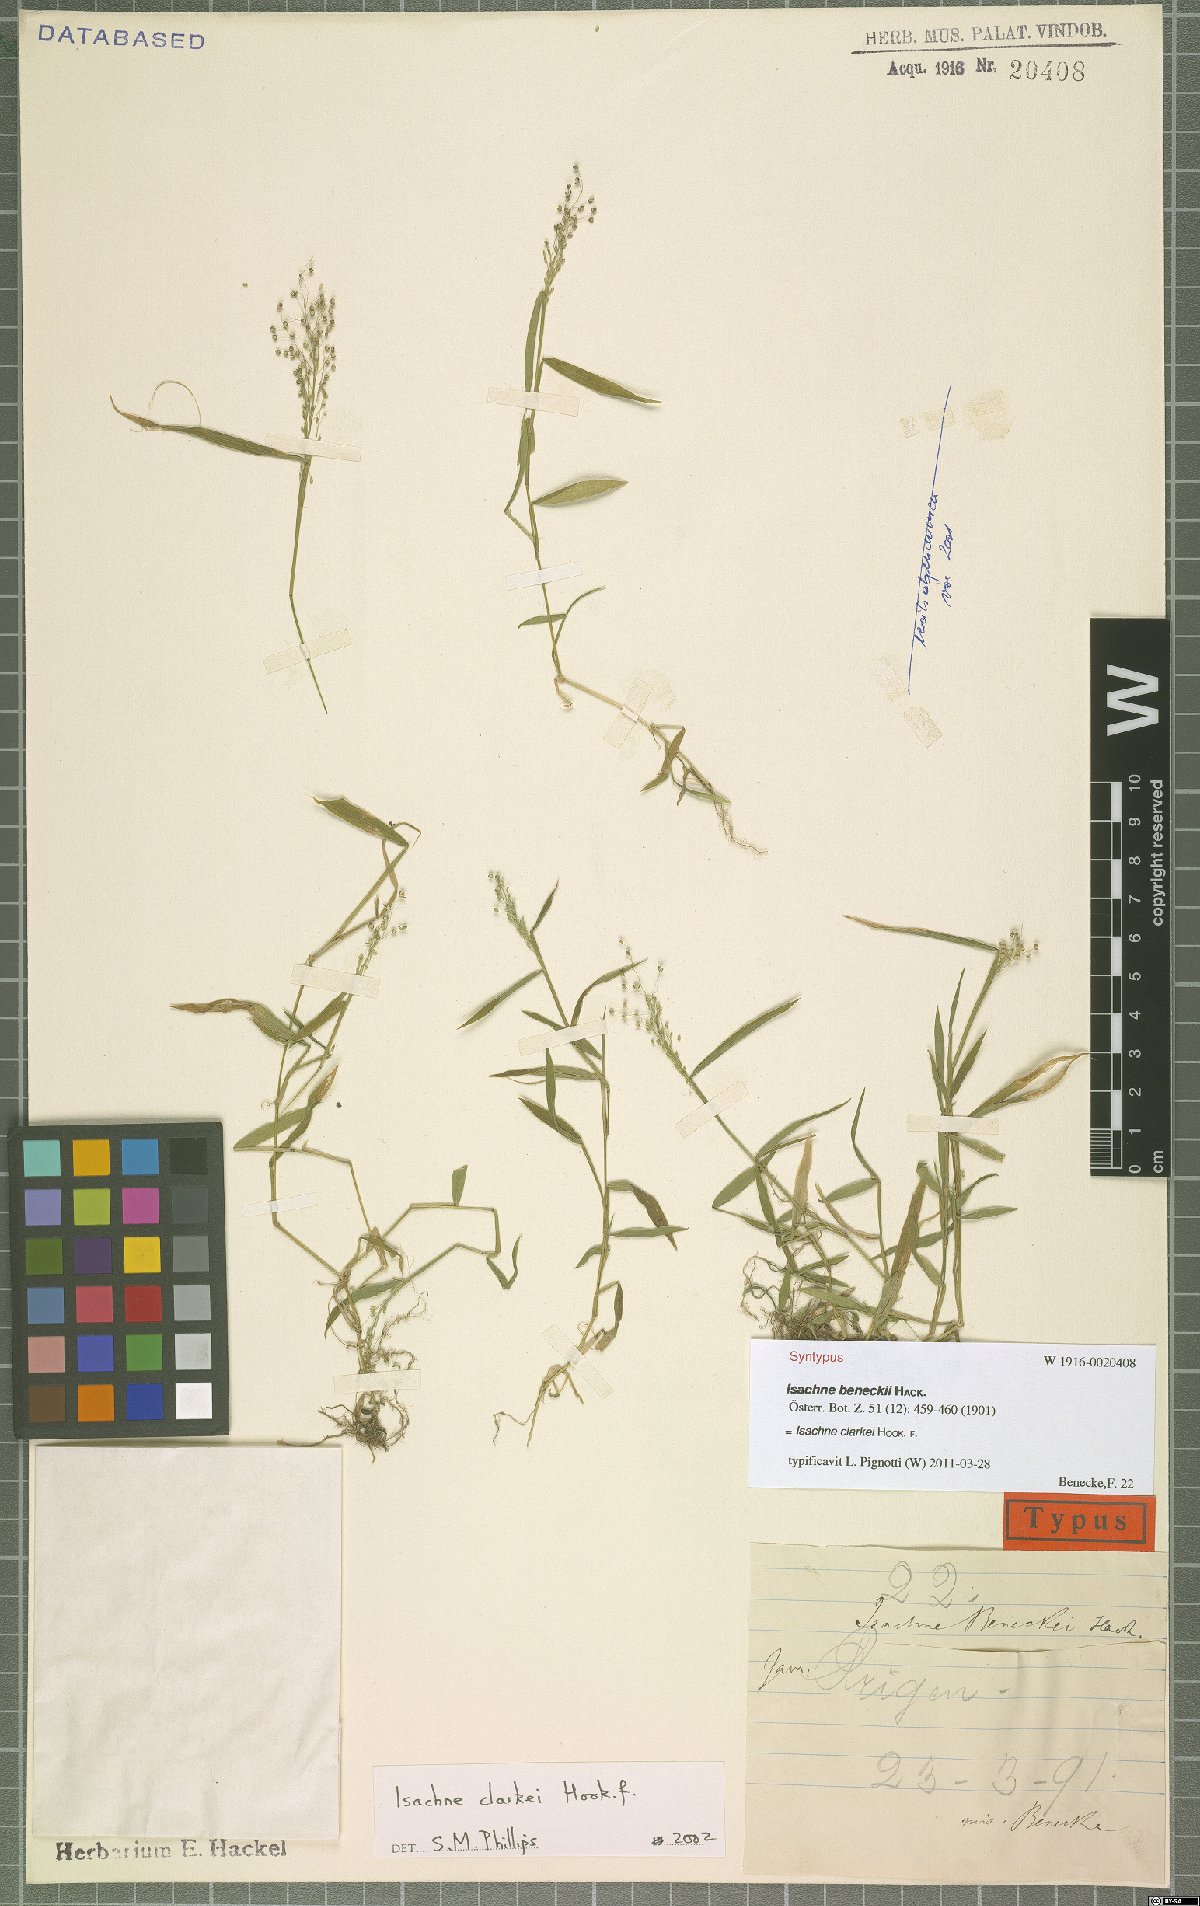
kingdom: Plantae
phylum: Tracheophyta
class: Liliopsida
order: Poales
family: Poaceae
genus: Isachne
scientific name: Isachne clarkei
